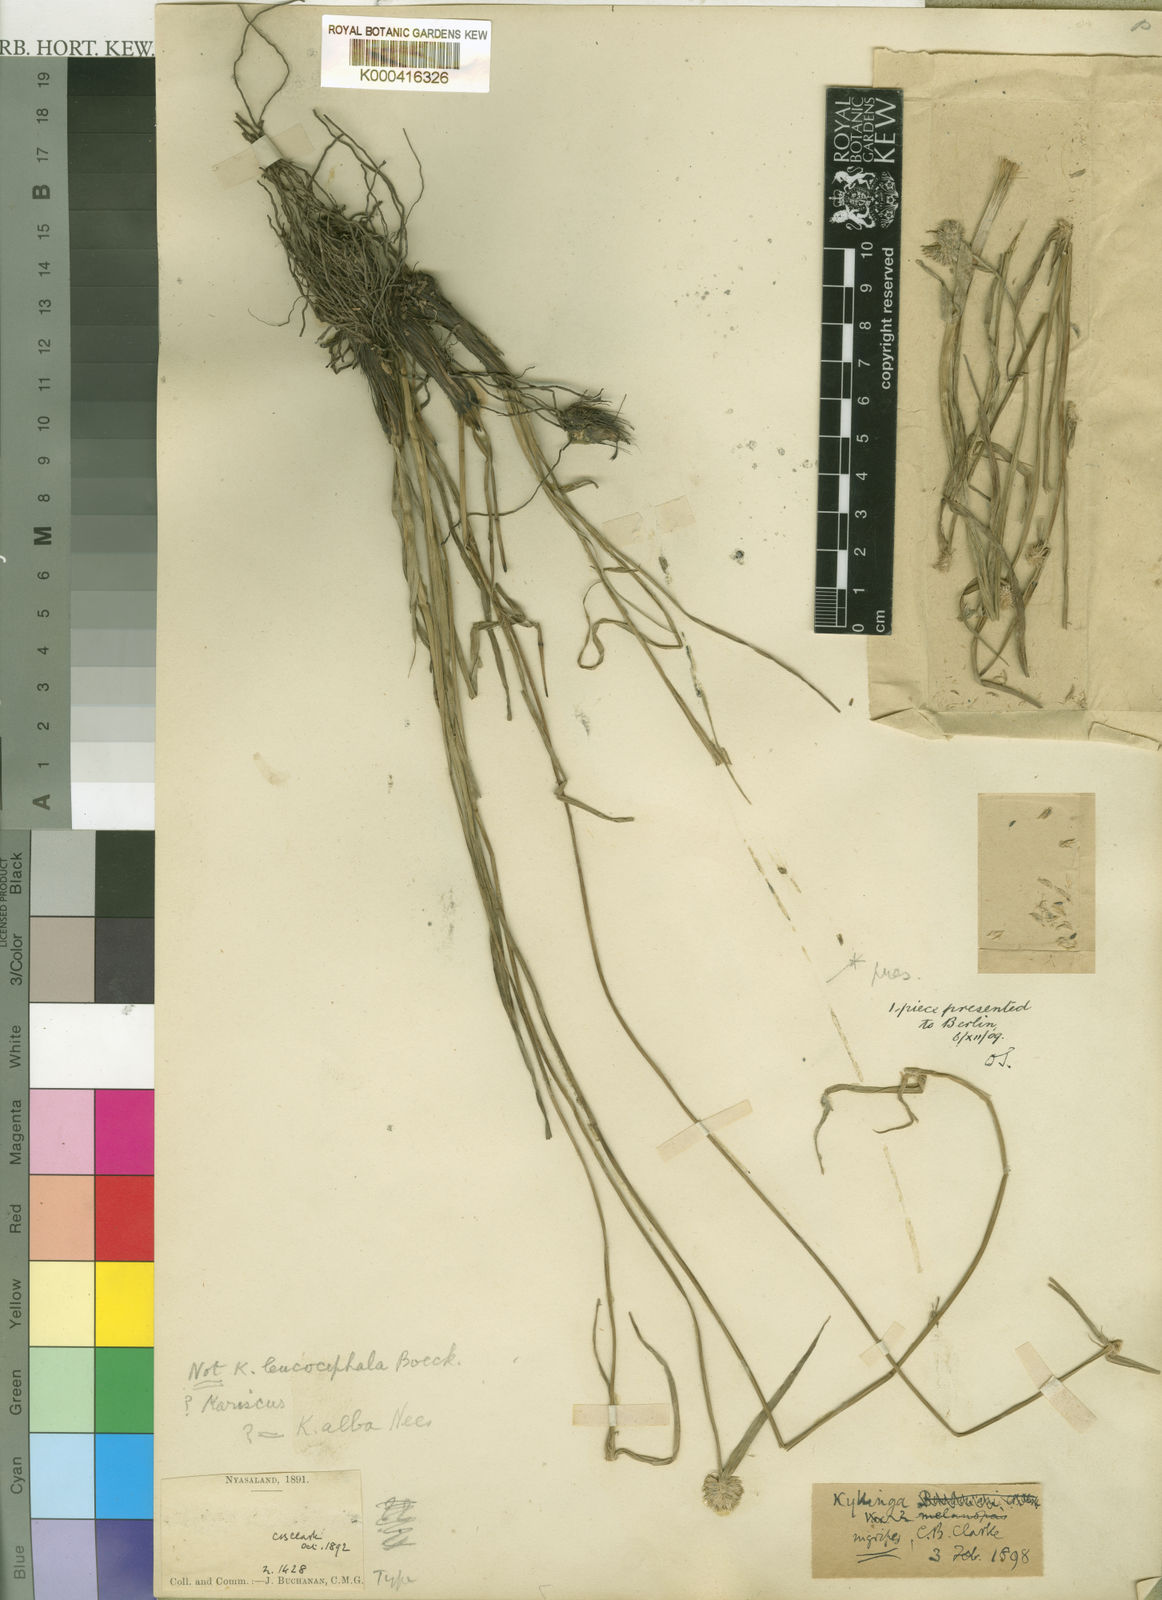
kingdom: Plantae
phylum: Tracheophyta
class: Liliopsida
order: Poales
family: Cyperaceae
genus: Cyperus
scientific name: Cyperus nigripes
